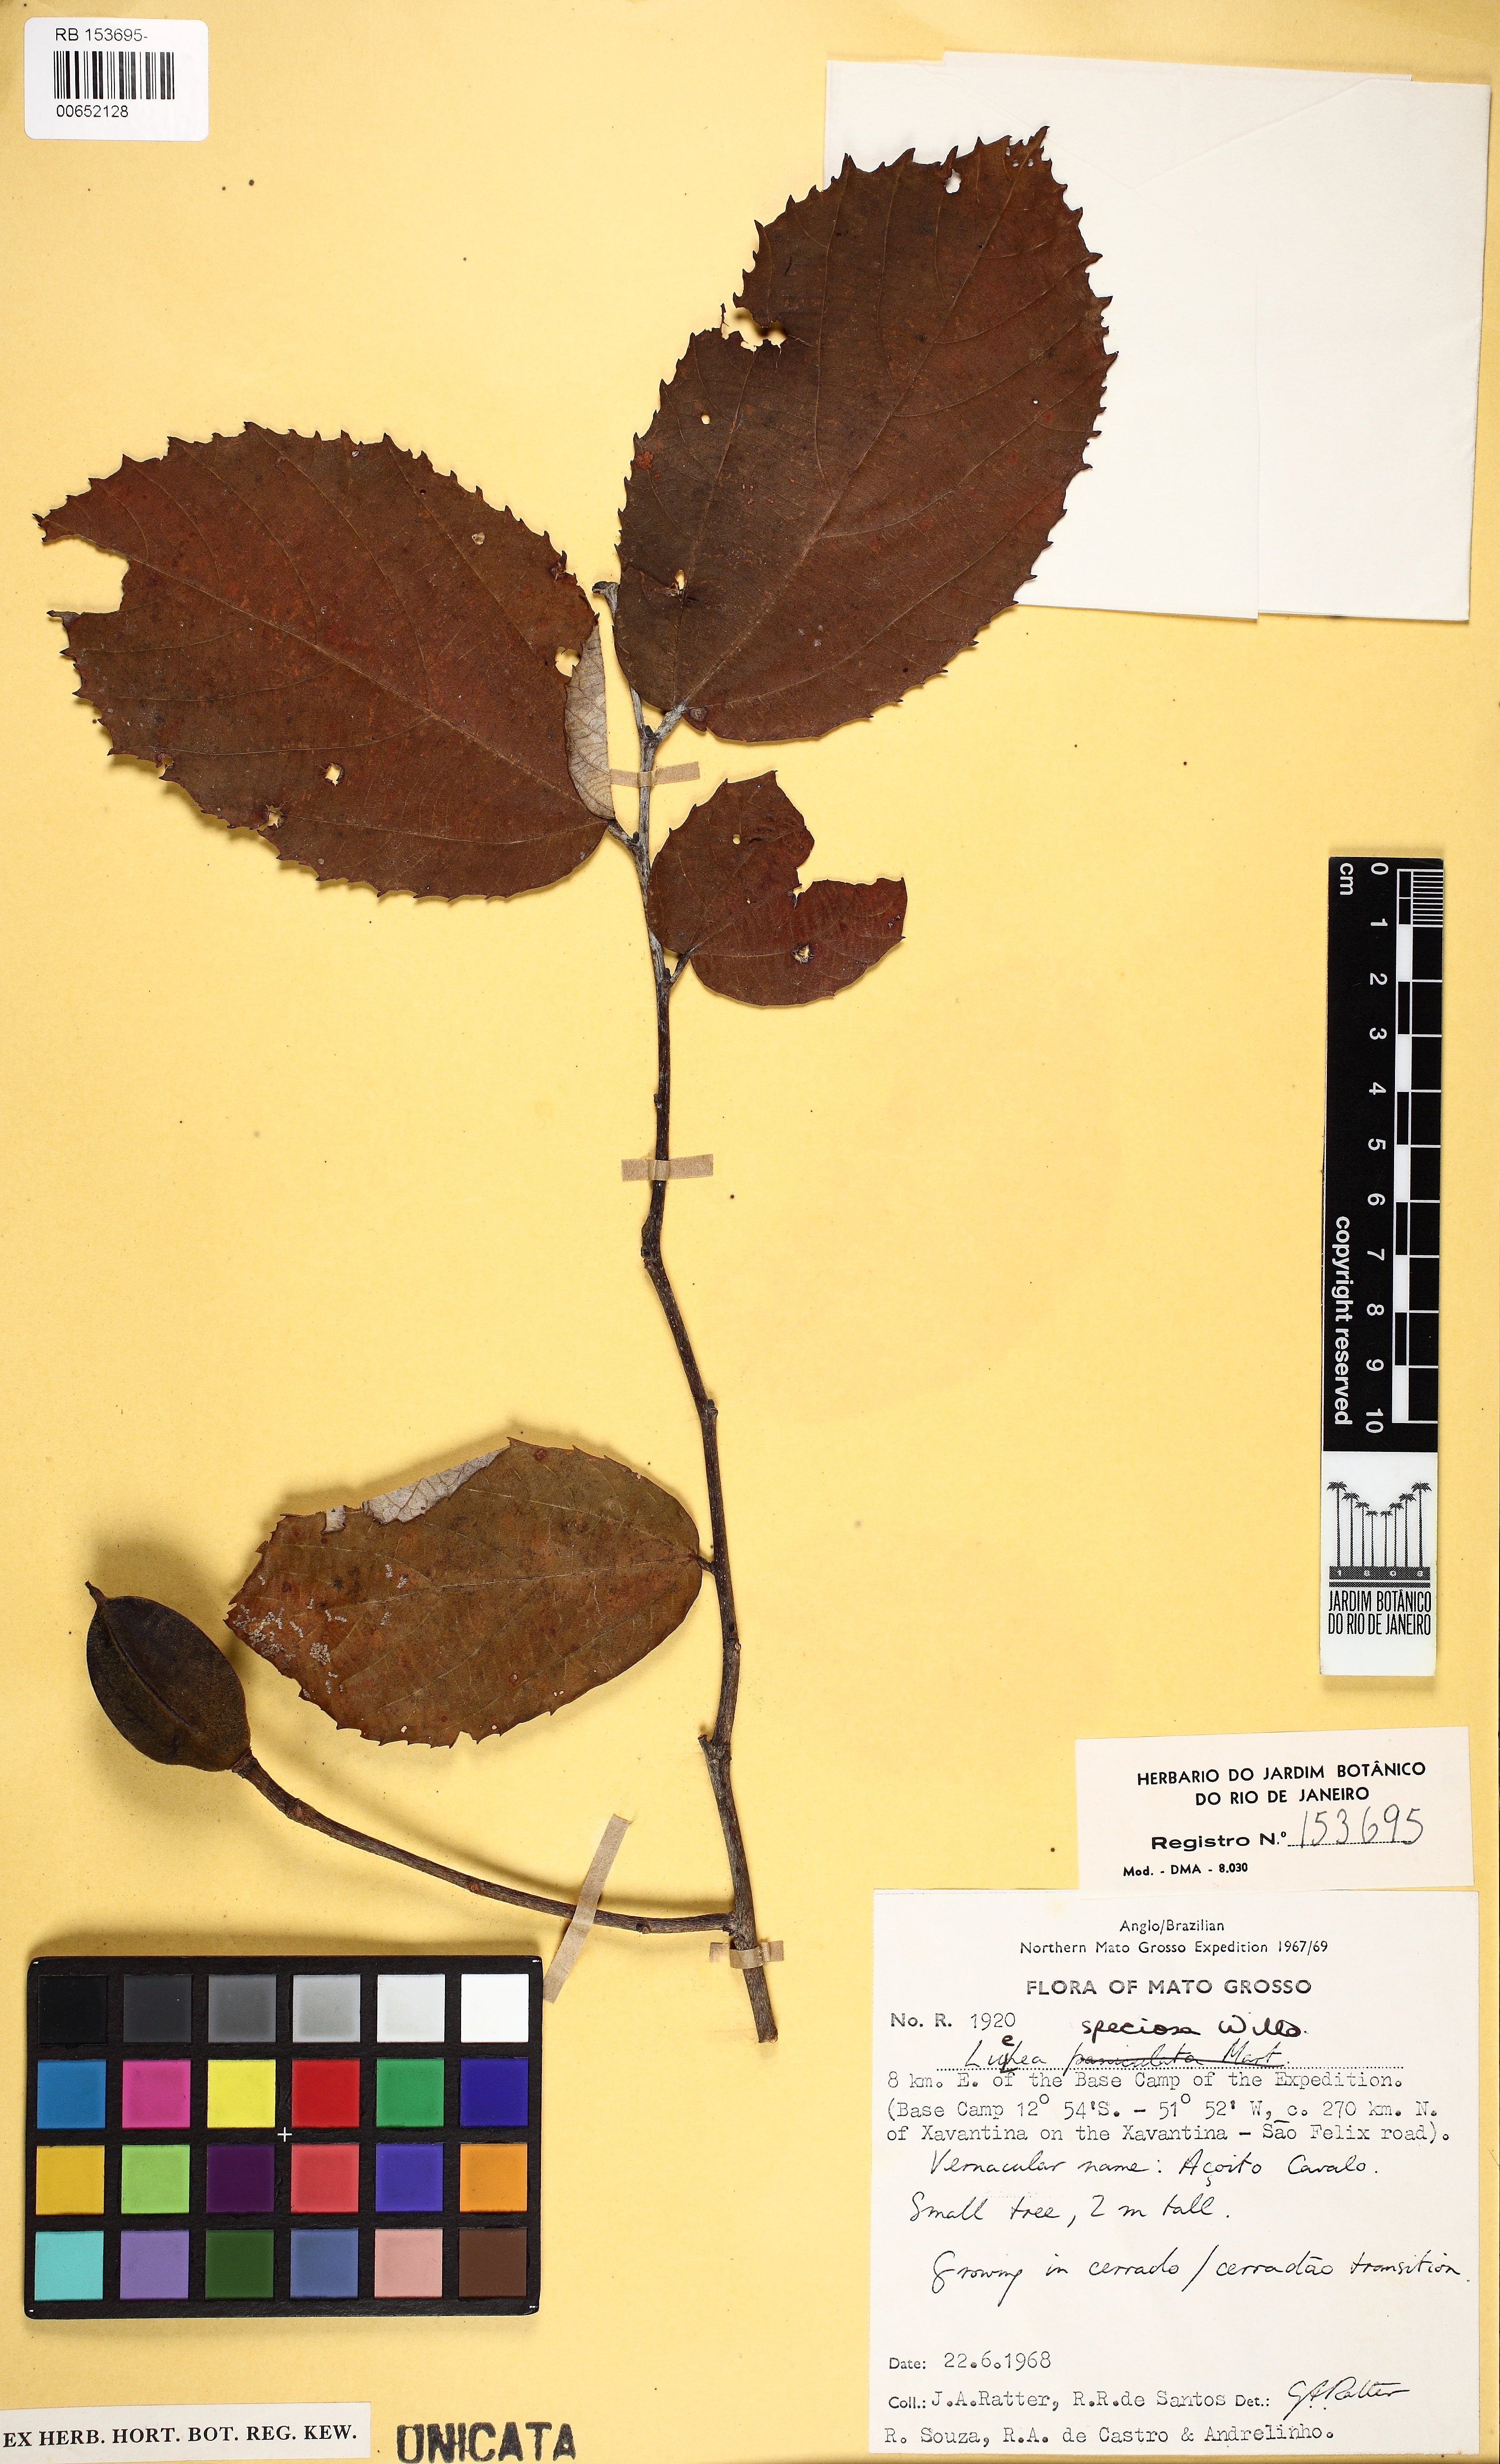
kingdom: Plantae
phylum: Tracheophyta
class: Magnoliopsida
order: Malvales
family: Malvaceae
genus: Luehea
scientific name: Luehea speciosa
